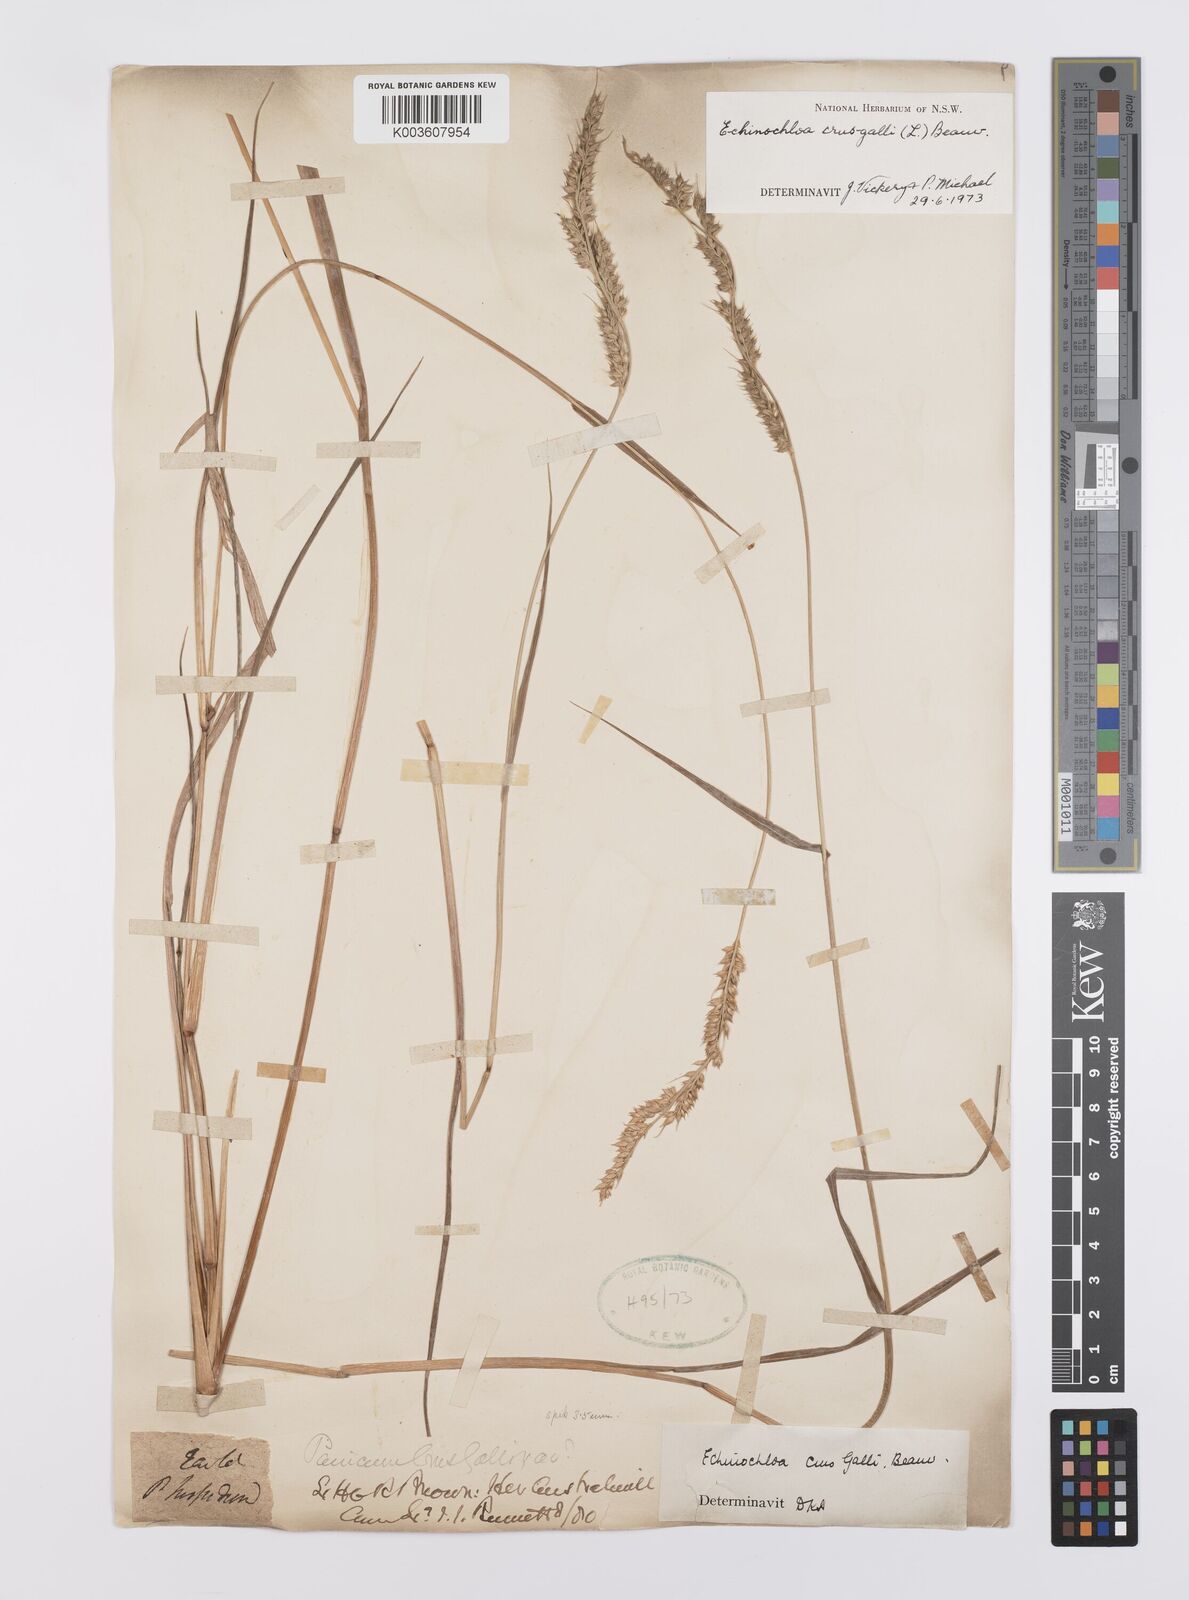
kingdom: Plantae
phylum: Tracheophyta
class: Liliopsida
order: Poales
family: Poaceae
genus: Echinochloa
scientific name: Echinochloa crus-galli
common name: Cockspur
